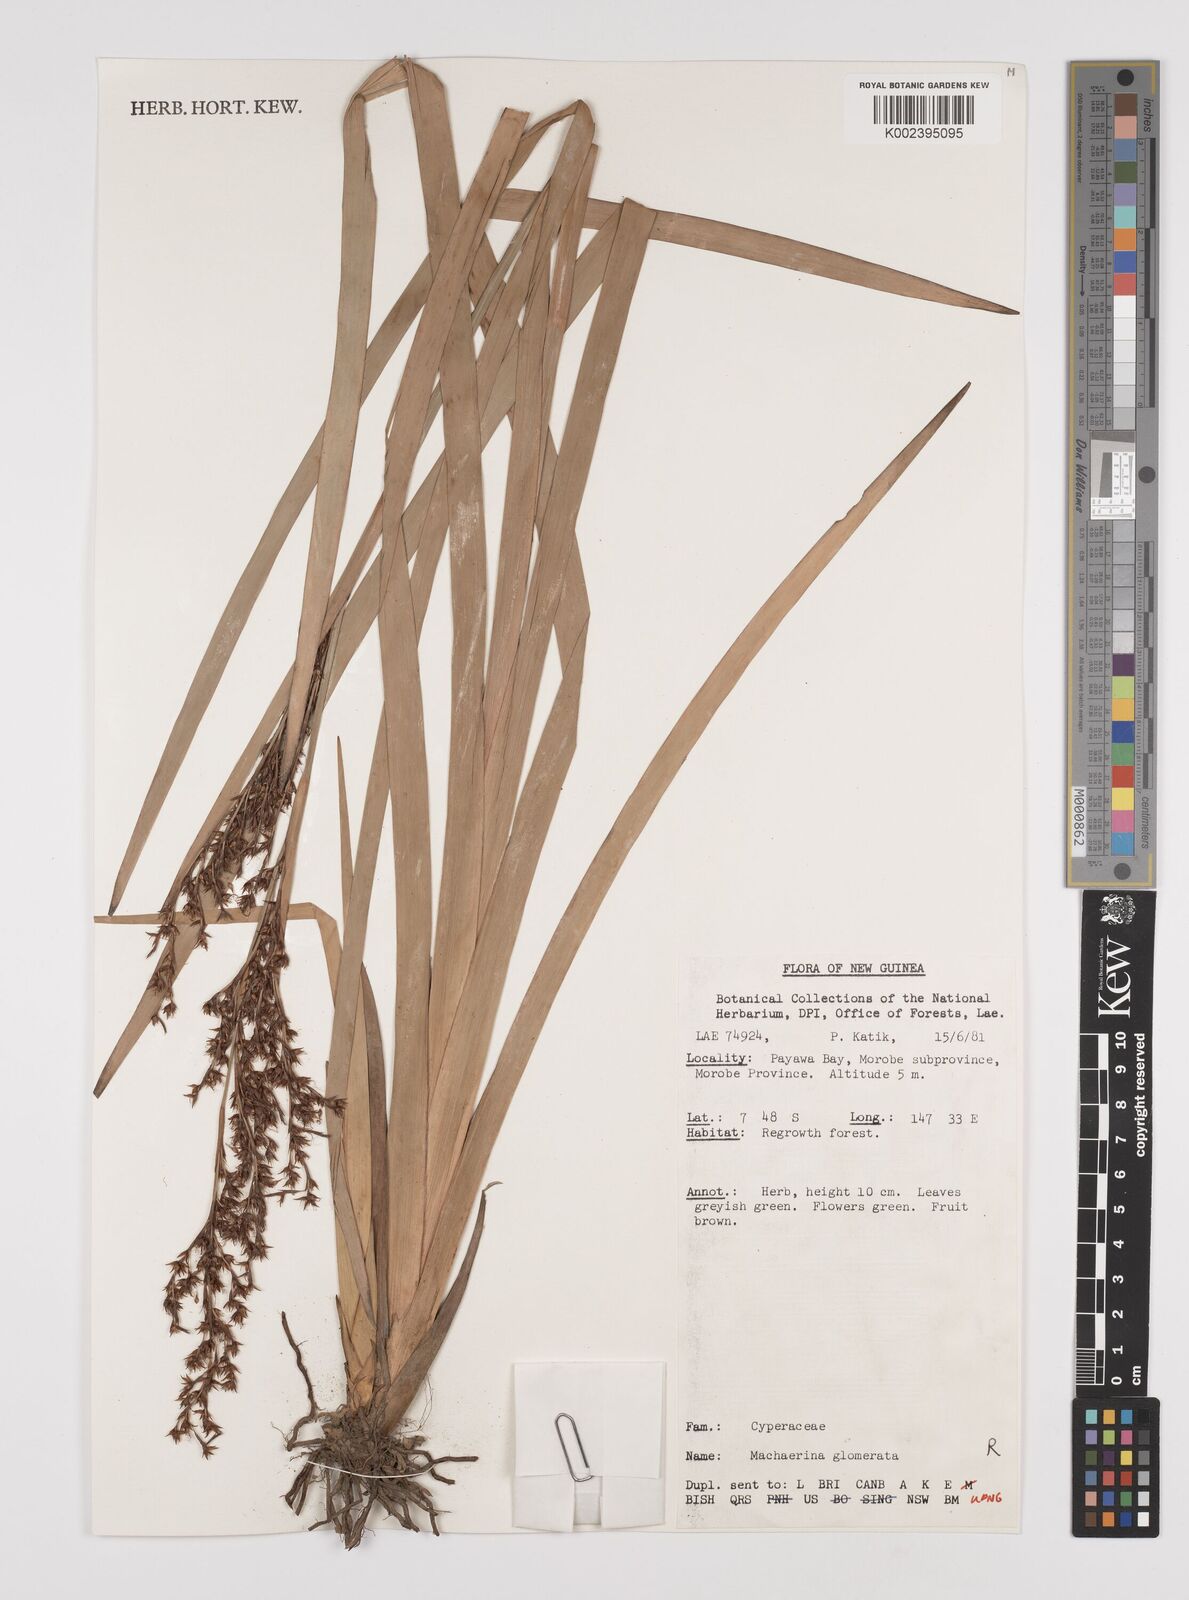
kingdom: Plantae
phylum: Tracheophyta
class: Liliopsida
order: Poales
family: Cyperaceae
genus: Machaerina
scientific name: Machaerina glomerata
